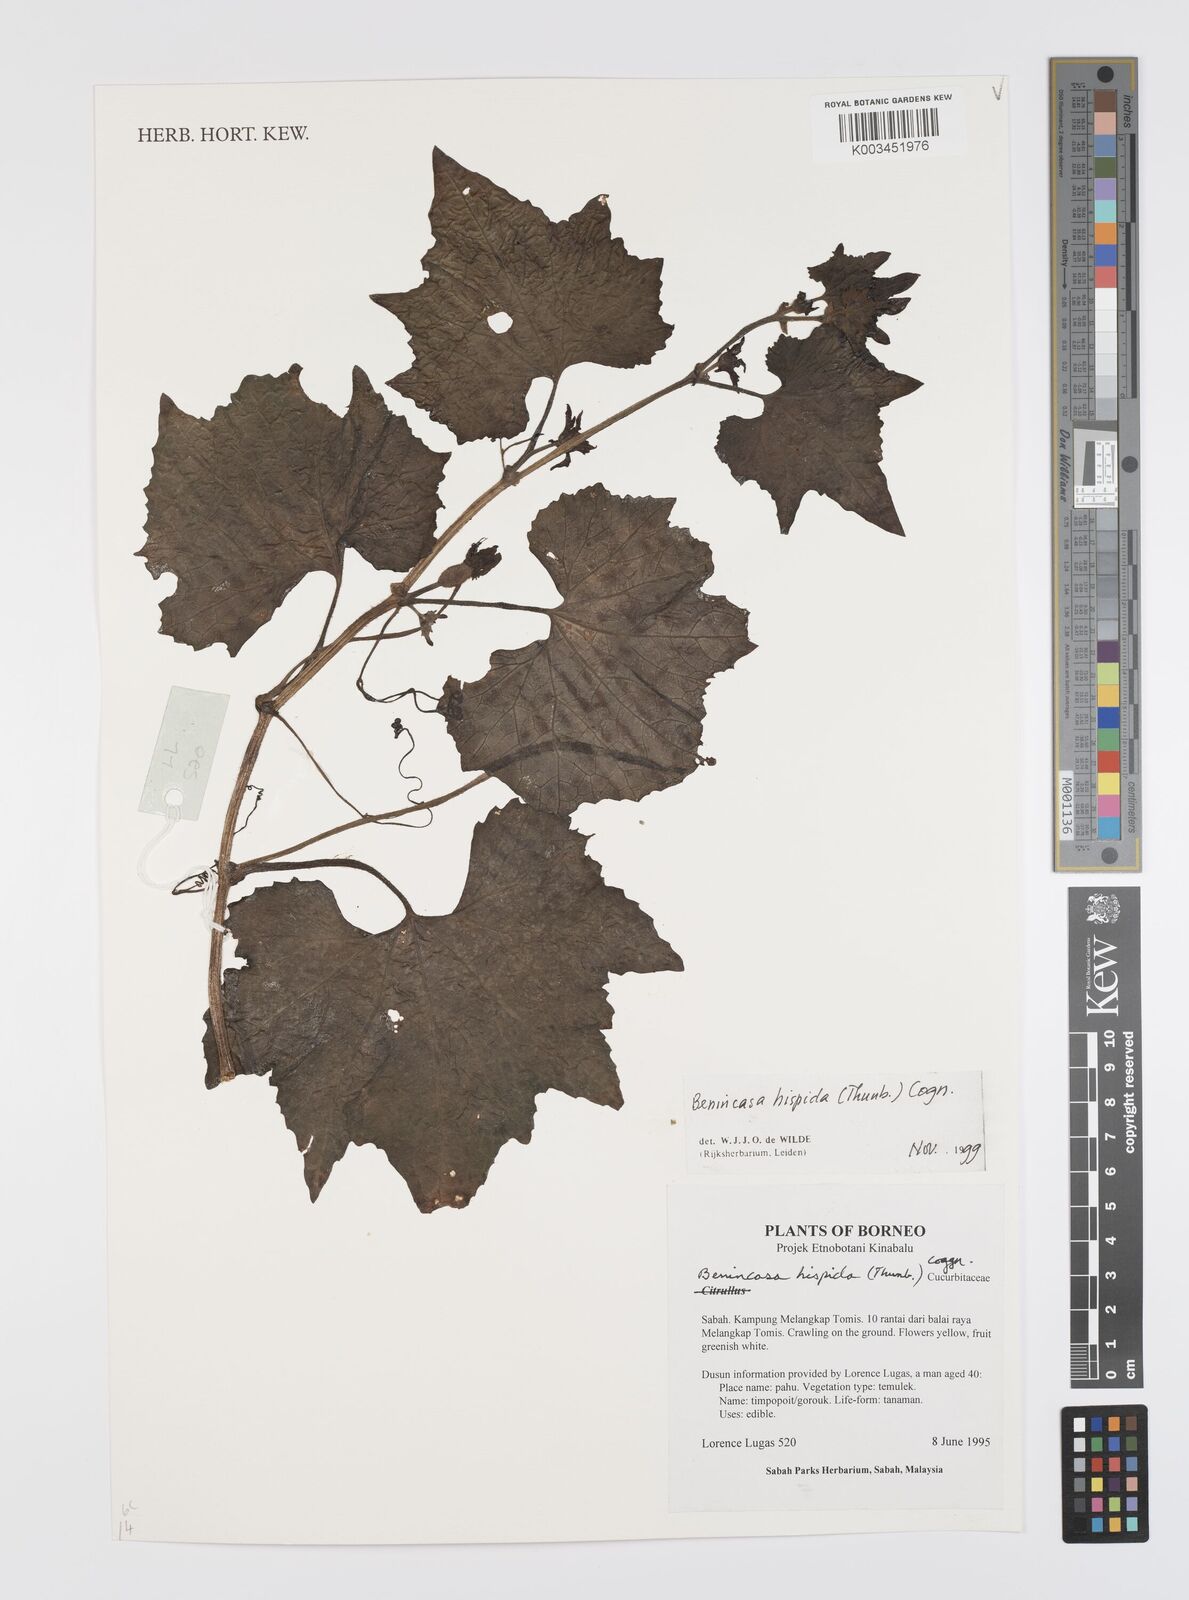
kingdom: Plantae
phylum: Tracheophyta
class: Magnoliopsida
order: Cucurbitales
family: Cucurbitaceae
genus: Benincasa
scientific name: Benincasa hispida
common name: Chinese-watermelon
